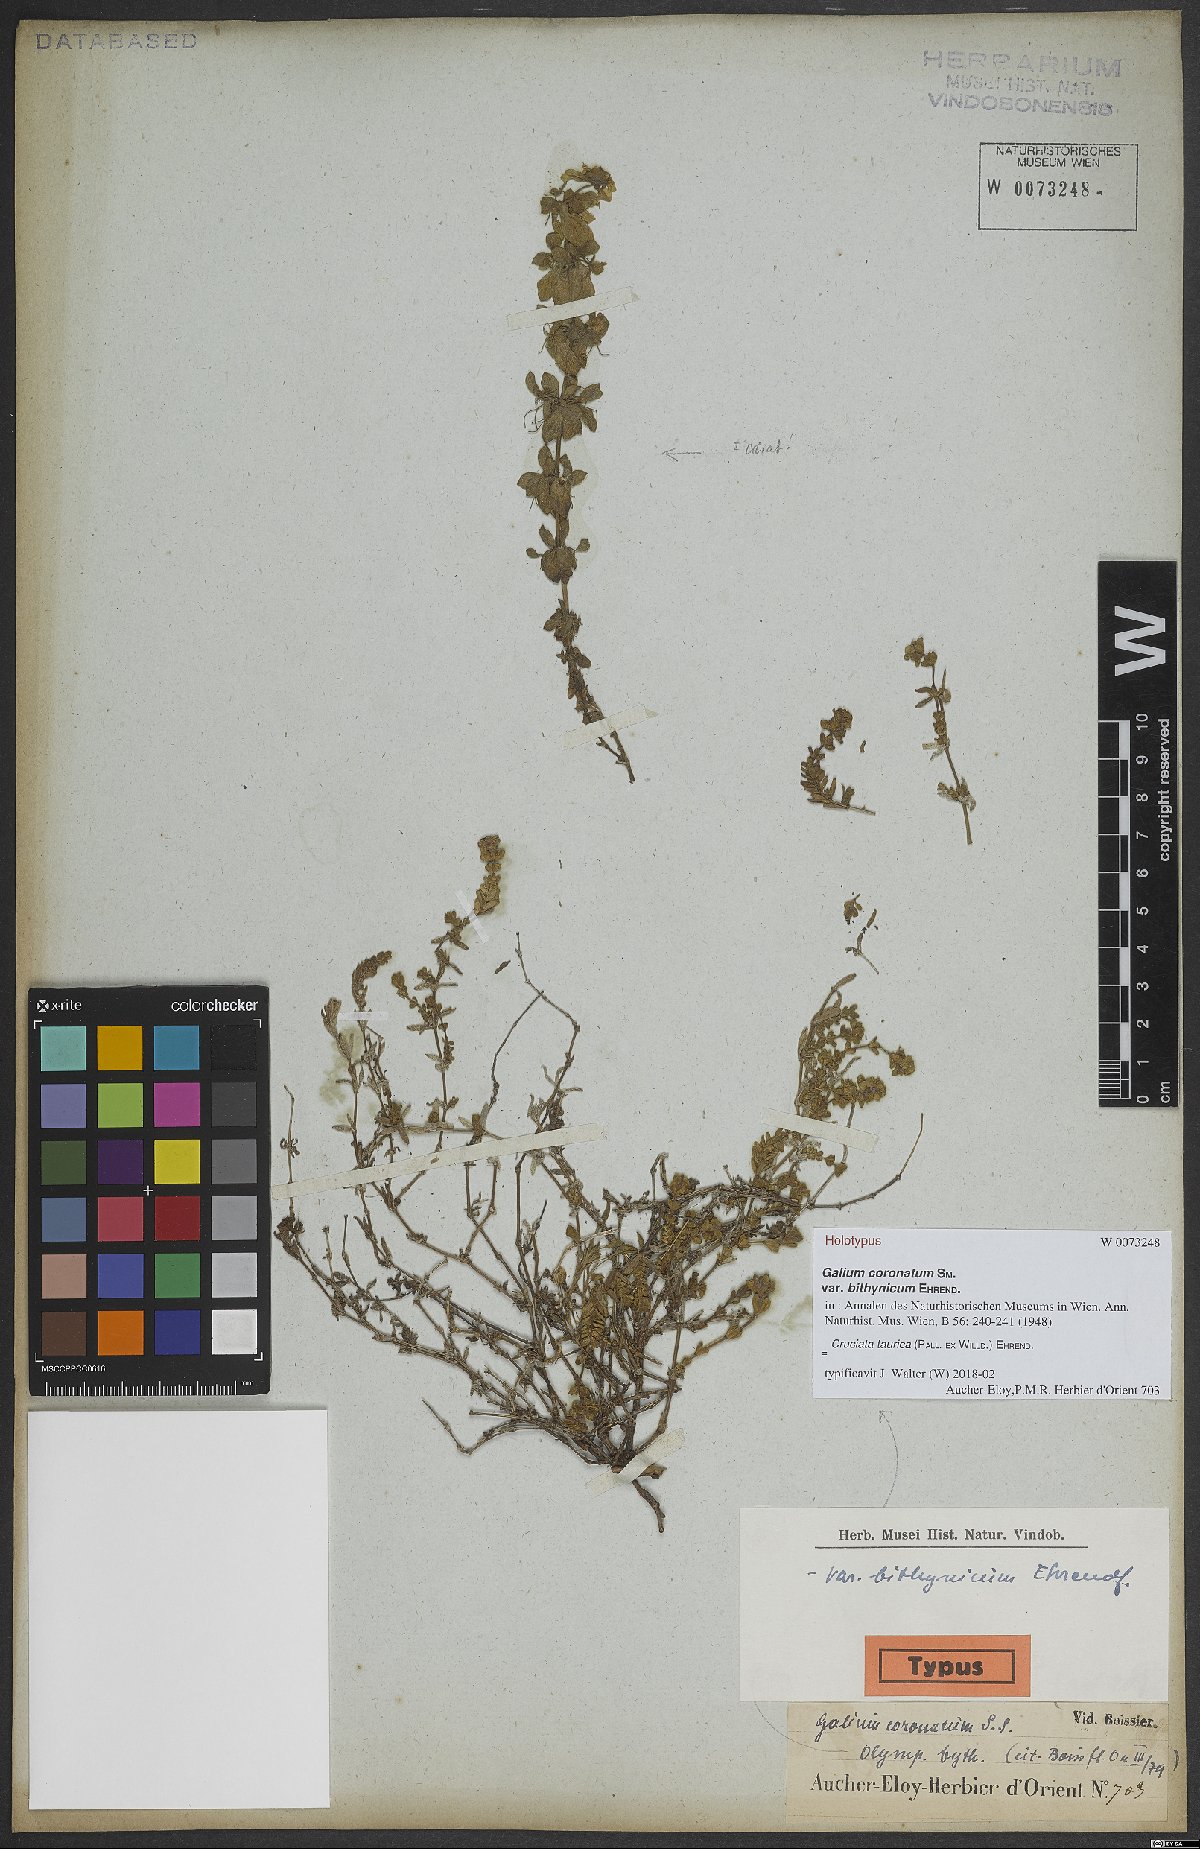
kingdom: Plantae
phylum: Tracheophyta
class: Magnoliopsida
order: Gentianales
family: Rubiaceae
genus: Cruciata
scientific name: Cruciata taurica
